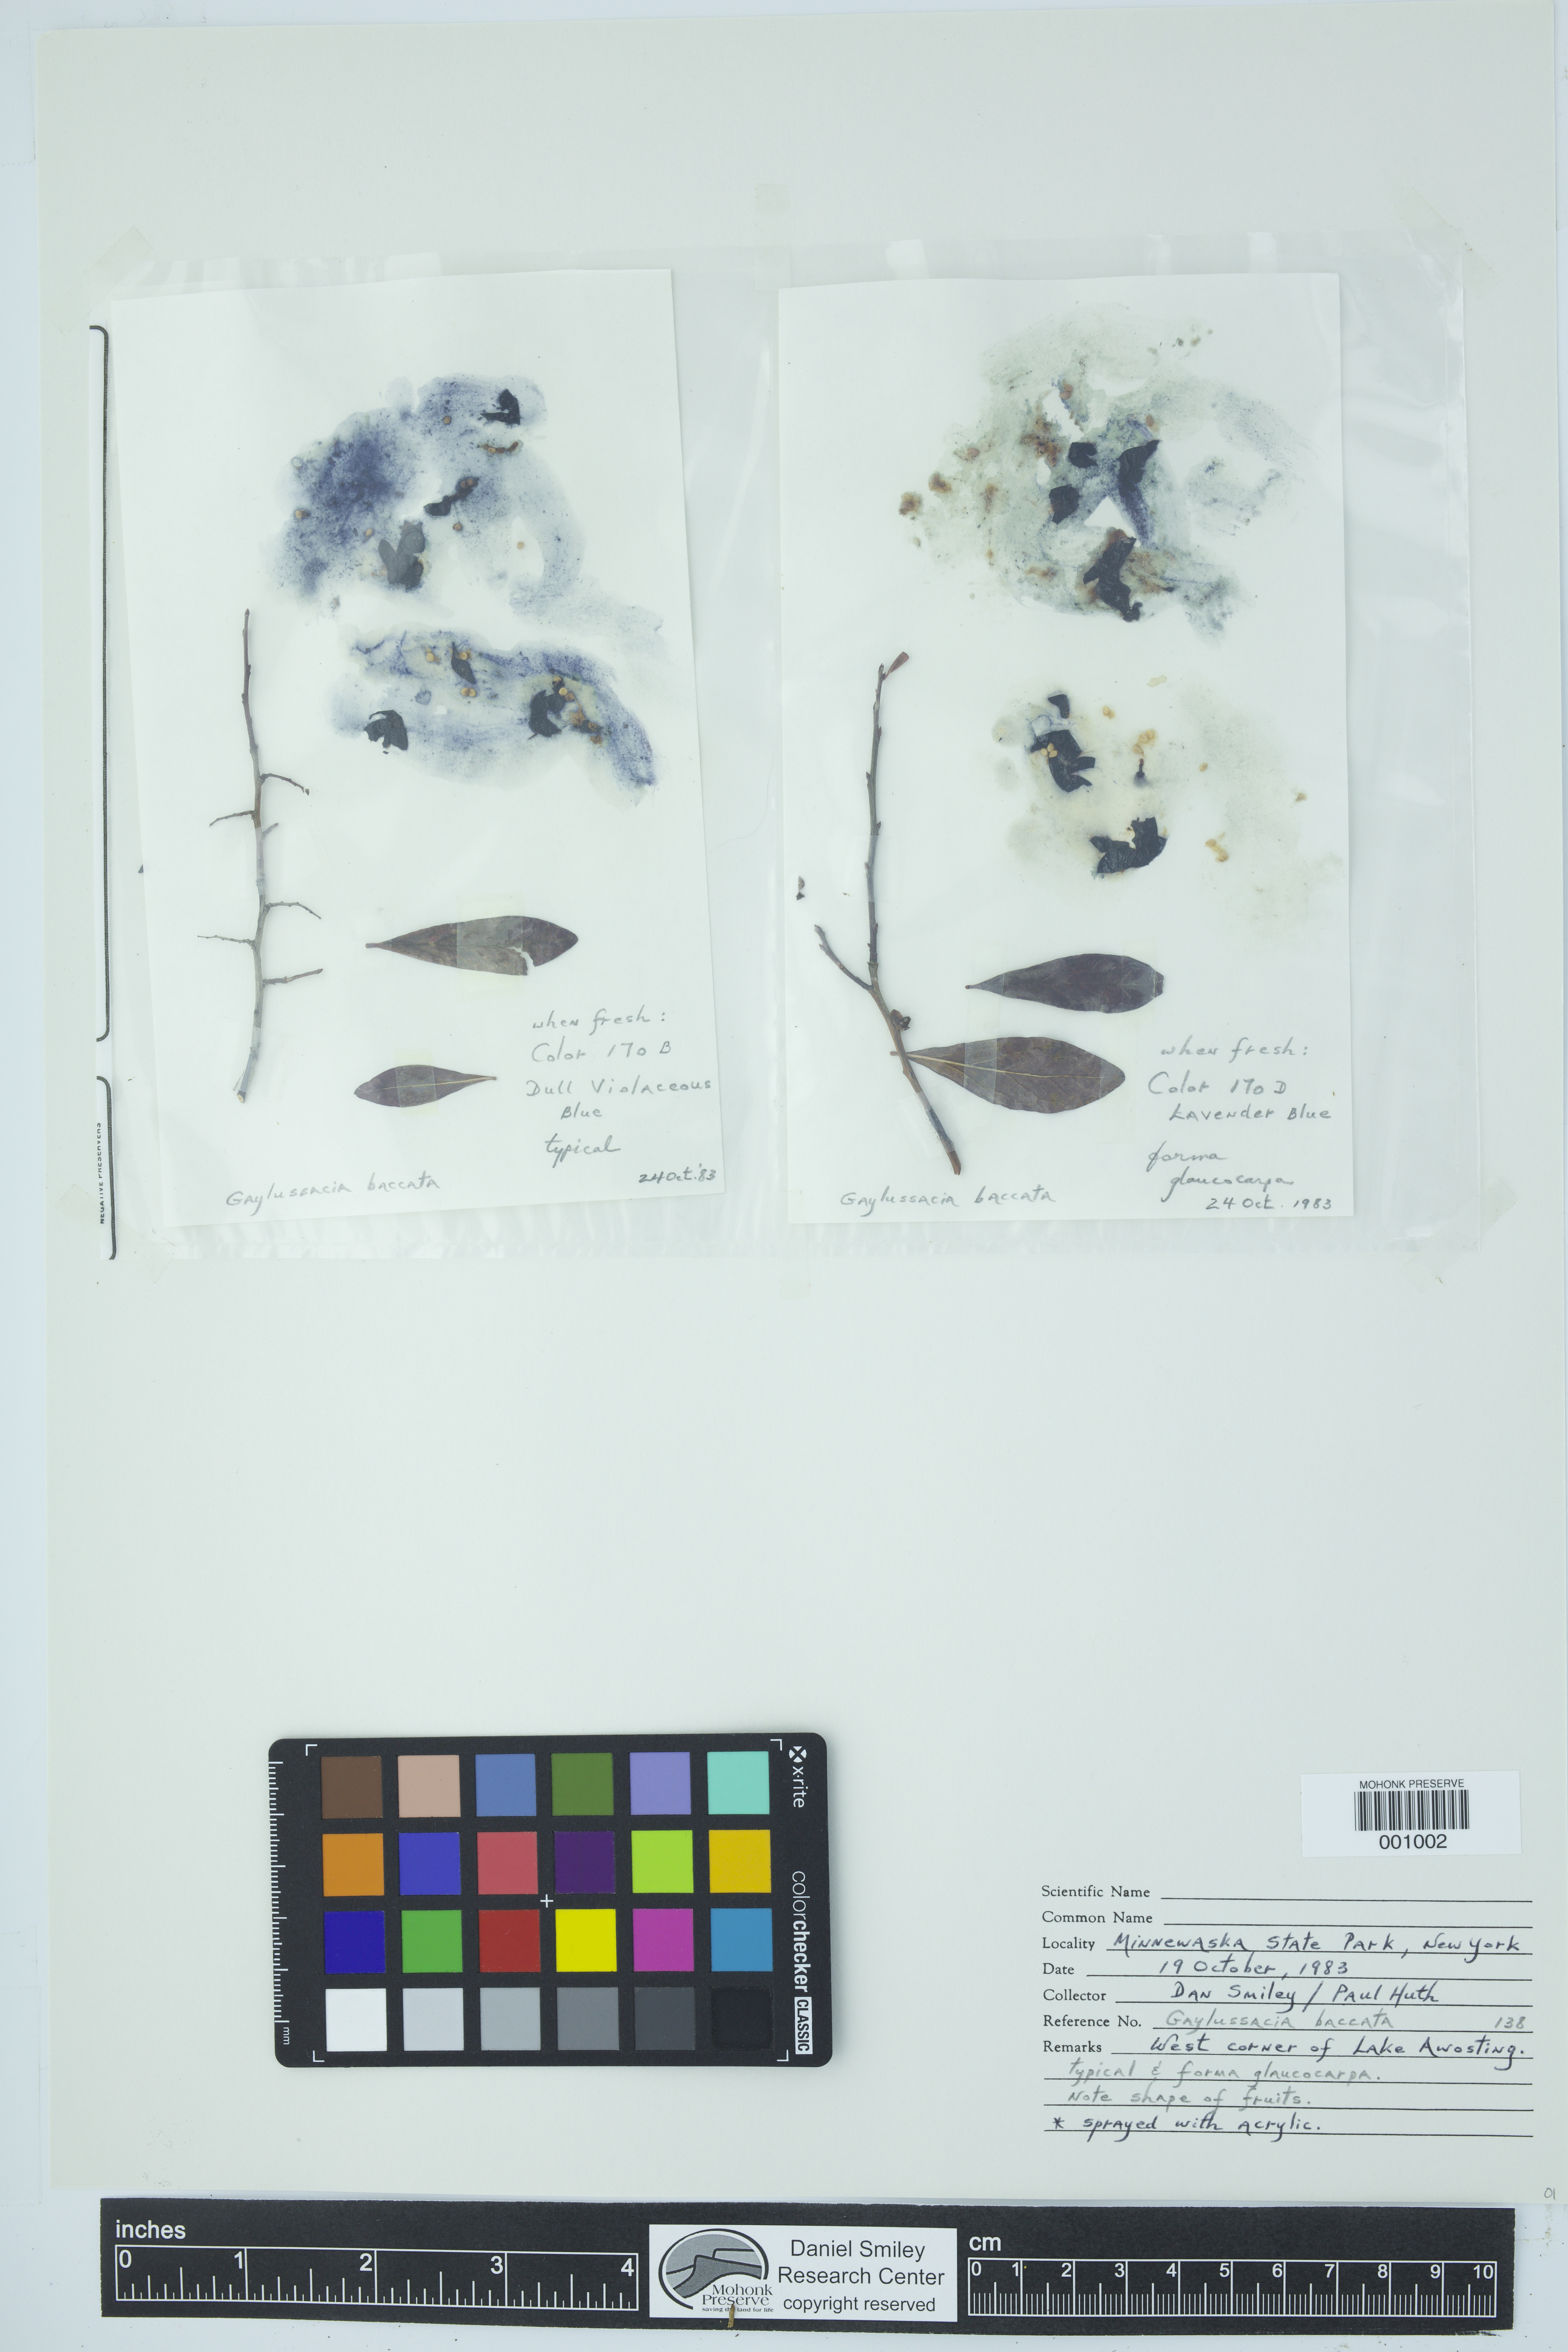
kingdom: Plantae
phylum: Tracheophyta
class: Magnoliopsida
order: Ericales
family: Ericaceae
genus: Gaylussacia
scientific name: Gaylussacia baccata
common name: Black huckleberry
